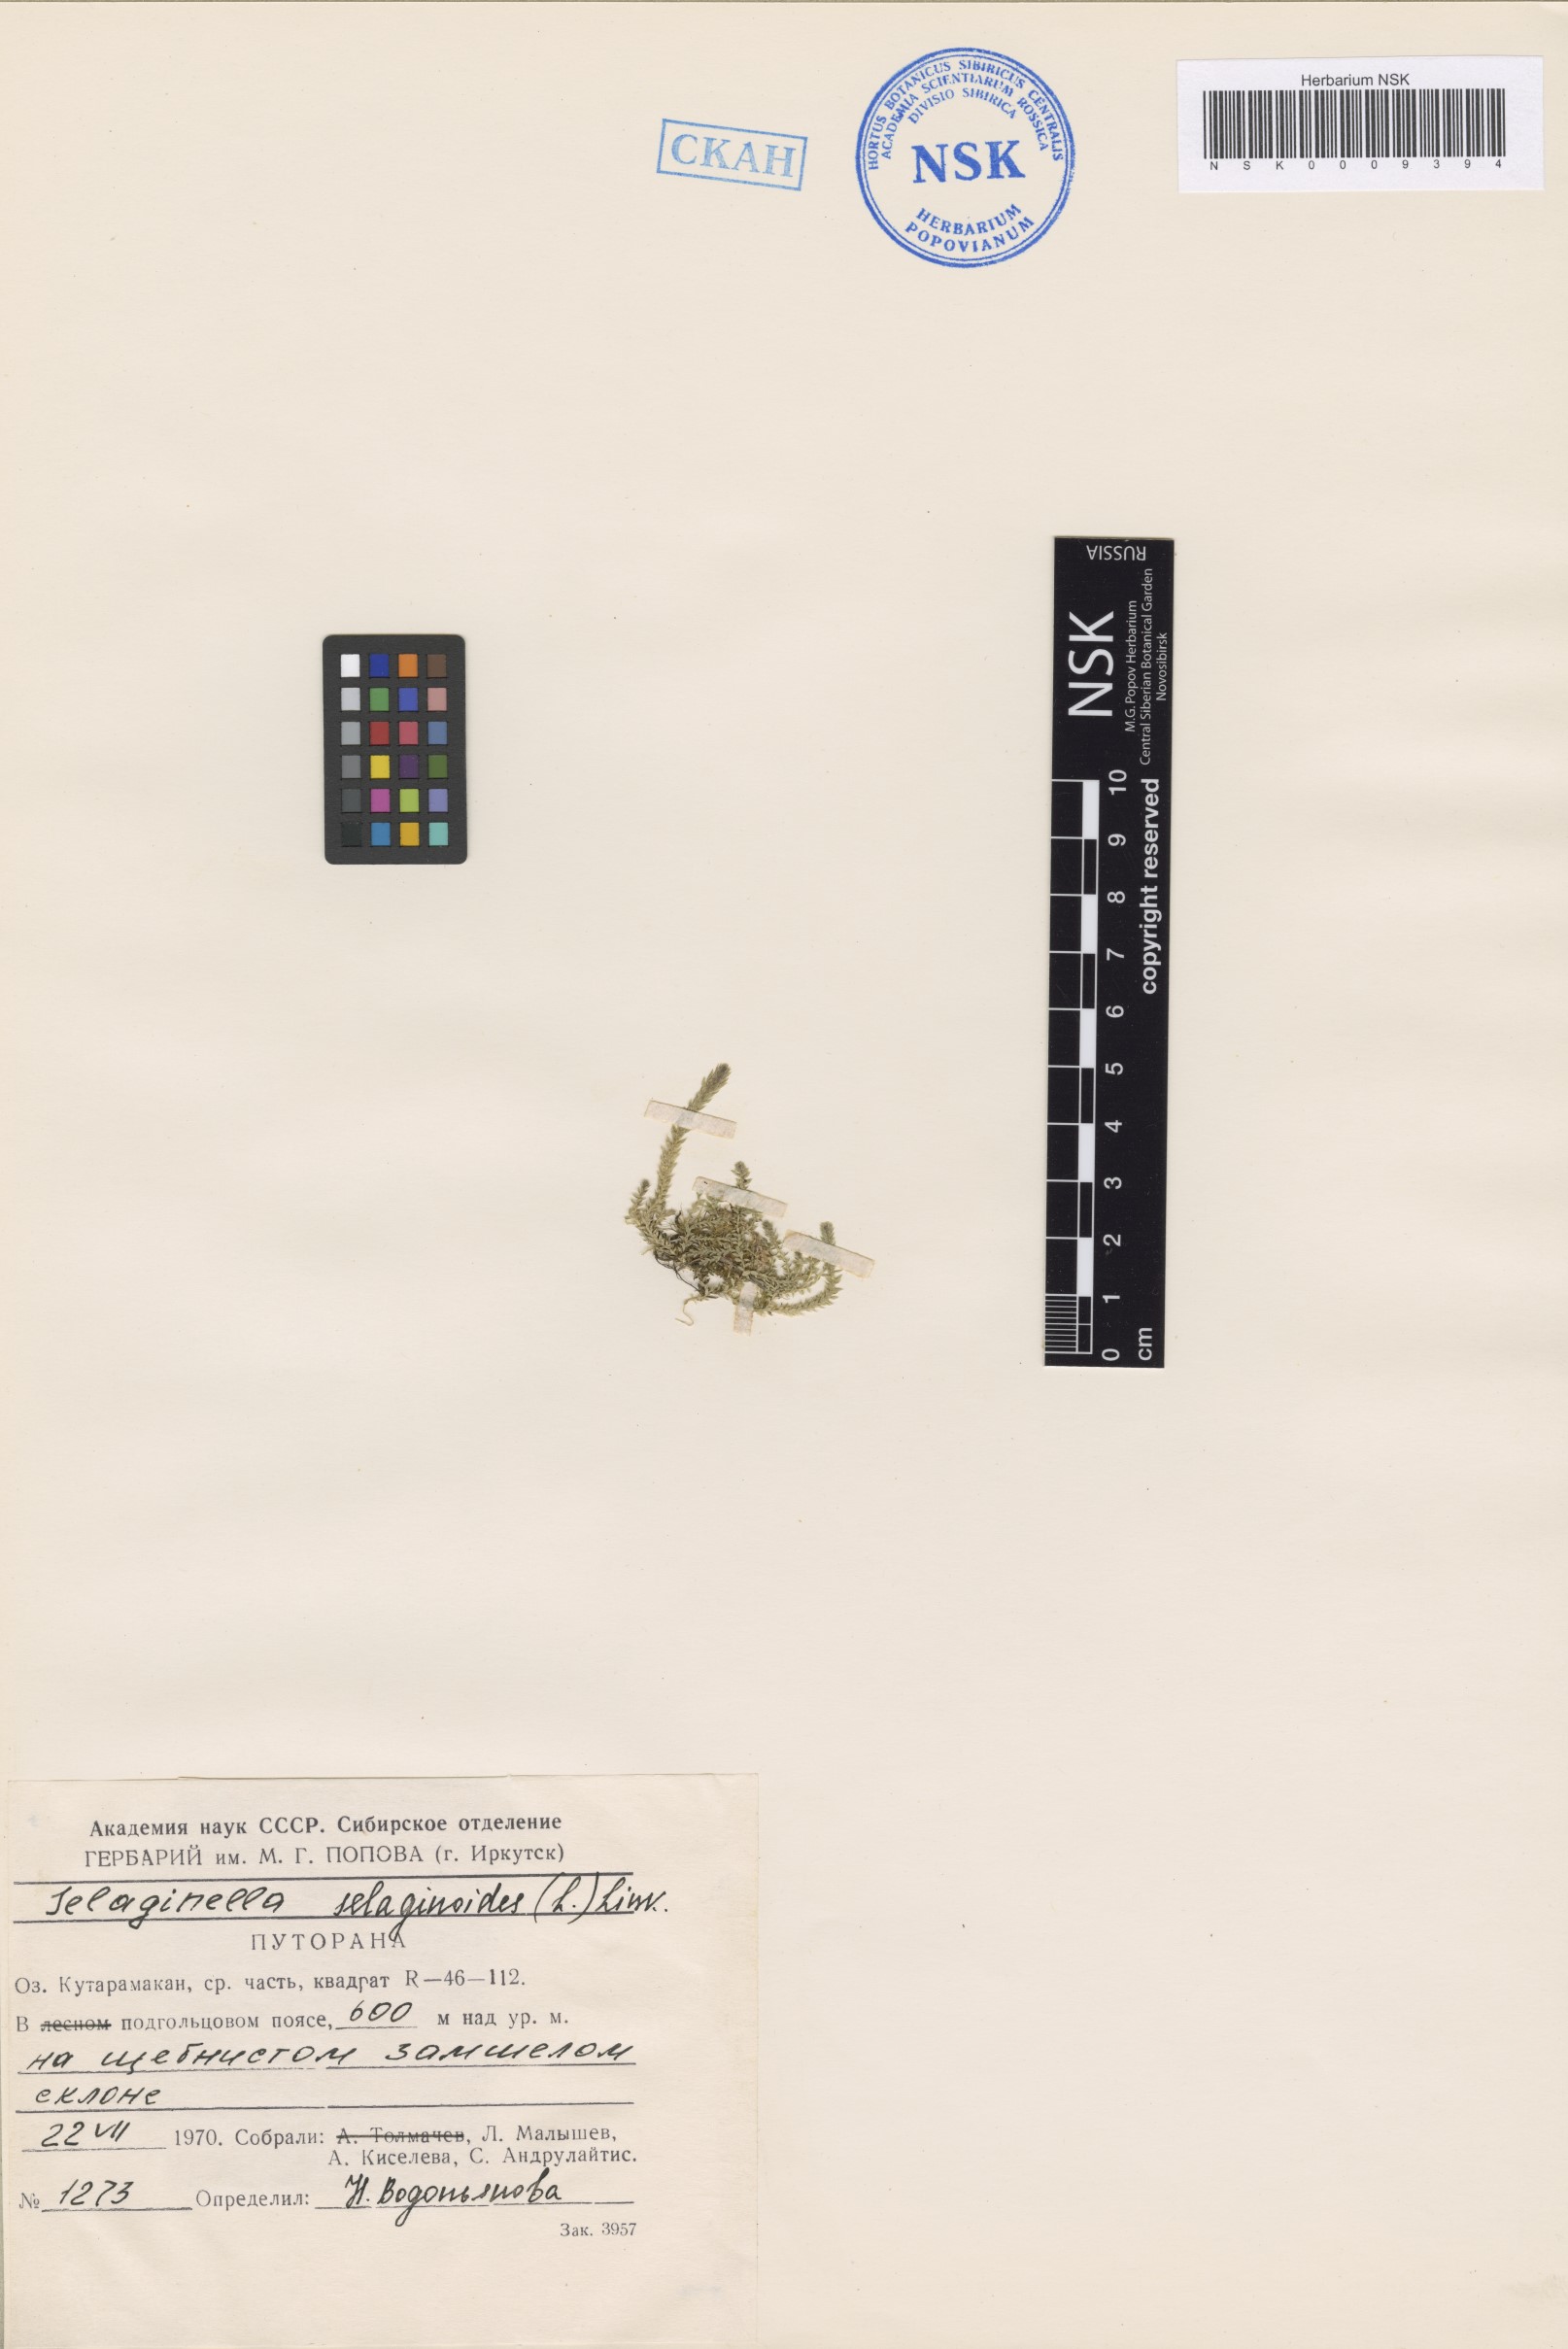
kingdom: Plantae
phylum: Tracheophyta
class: Lycopodiopsida
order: Selaginellales
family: Selaginellaceae
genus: Selaginella
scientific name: Selaginella selaginoides
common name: Prickly mountain-moss
